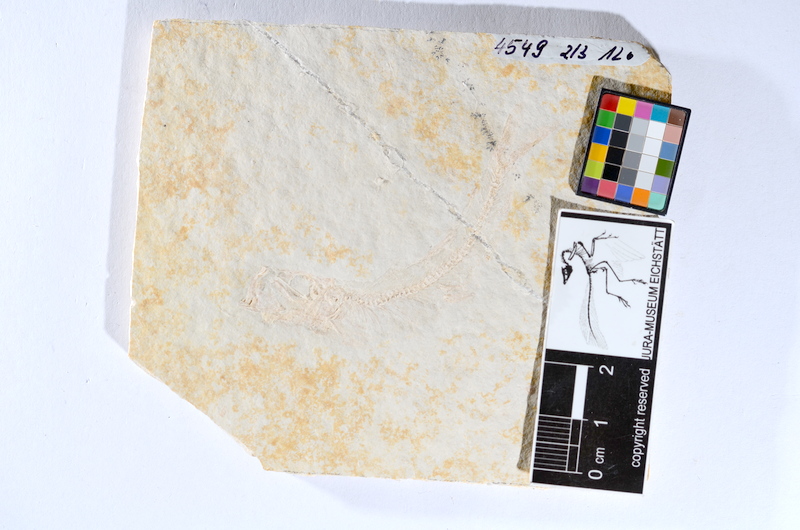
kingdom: Animalia
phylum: Chordata
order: Salmoniformes
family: Orthogonikleithridae
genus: Leptolepides
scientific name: Leptolepides sprattiformis
